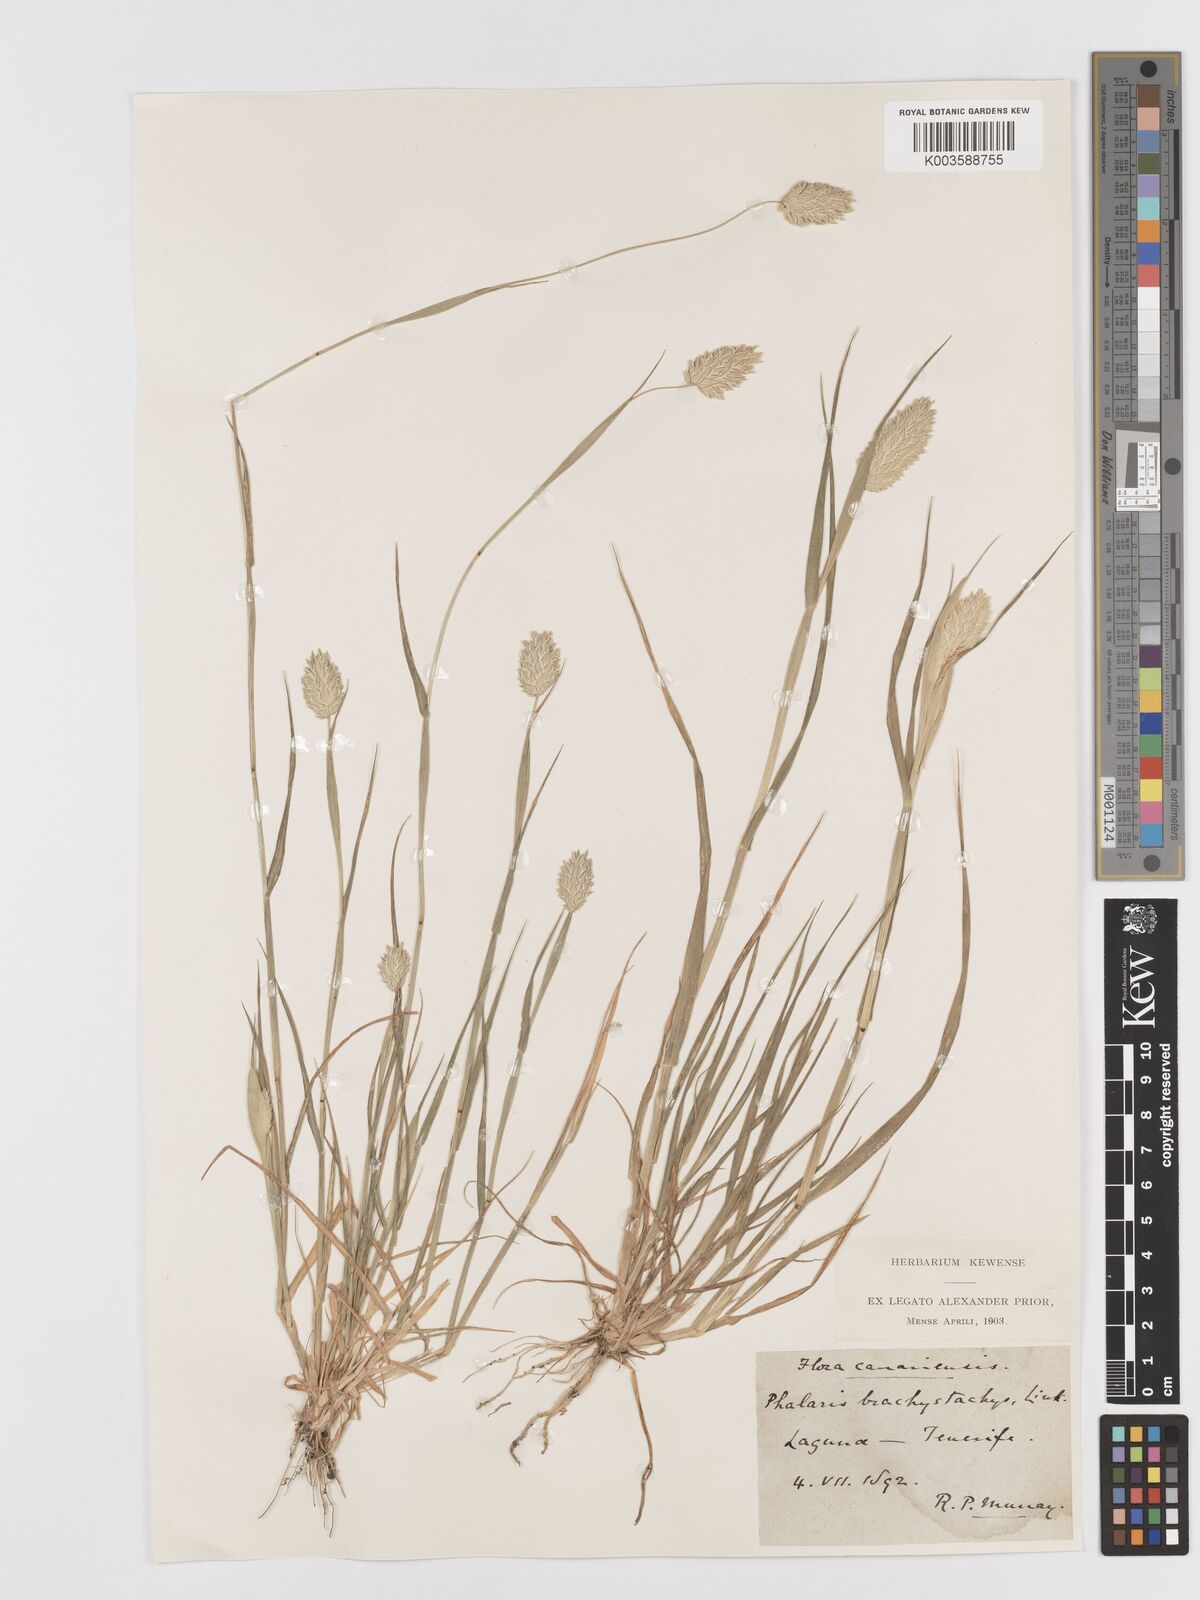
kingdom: Plantae
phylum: Tracheophyta
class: Liliopsida
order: Poales
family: Poaceae
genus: Phalaris
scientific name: Phalaris brachystachys
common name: Confused canary-grass
